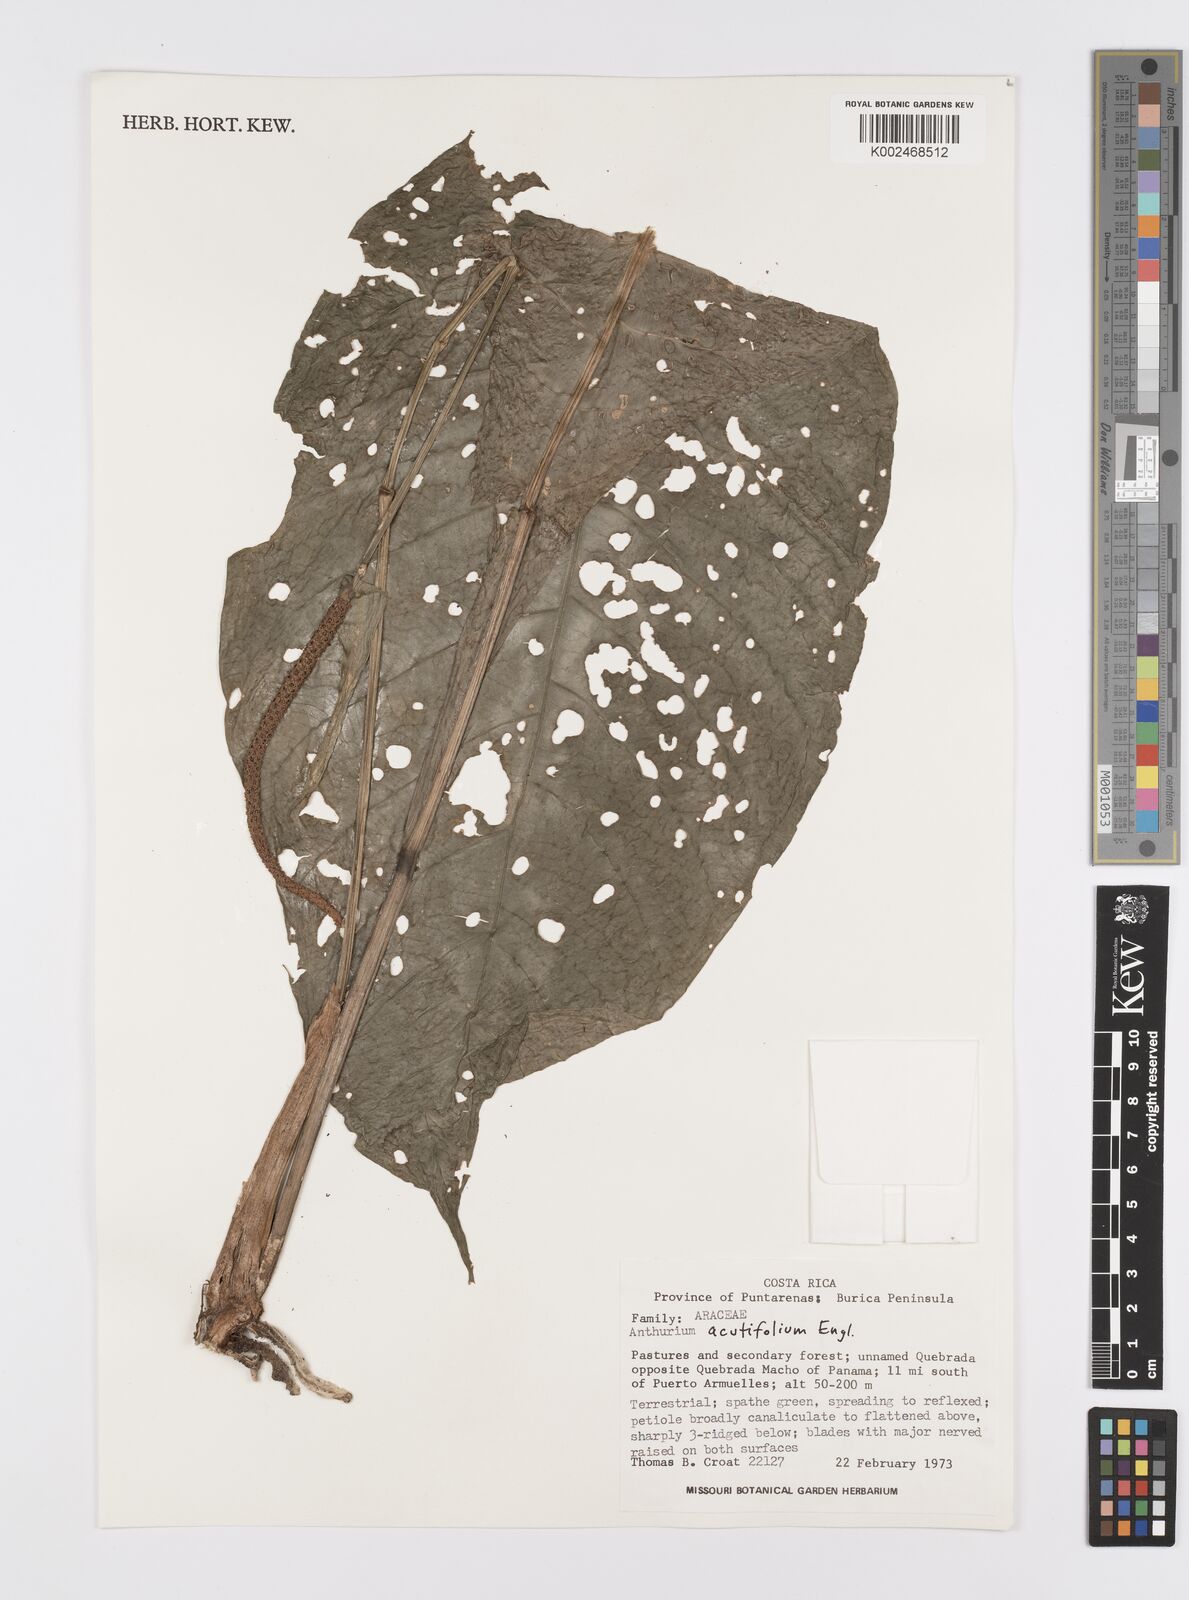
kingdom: Plantae
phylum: Tracheophyta
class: Liliopsida
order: Alismatales
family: Araceae
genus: Anthurium
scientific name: Anthurium acutifolium
